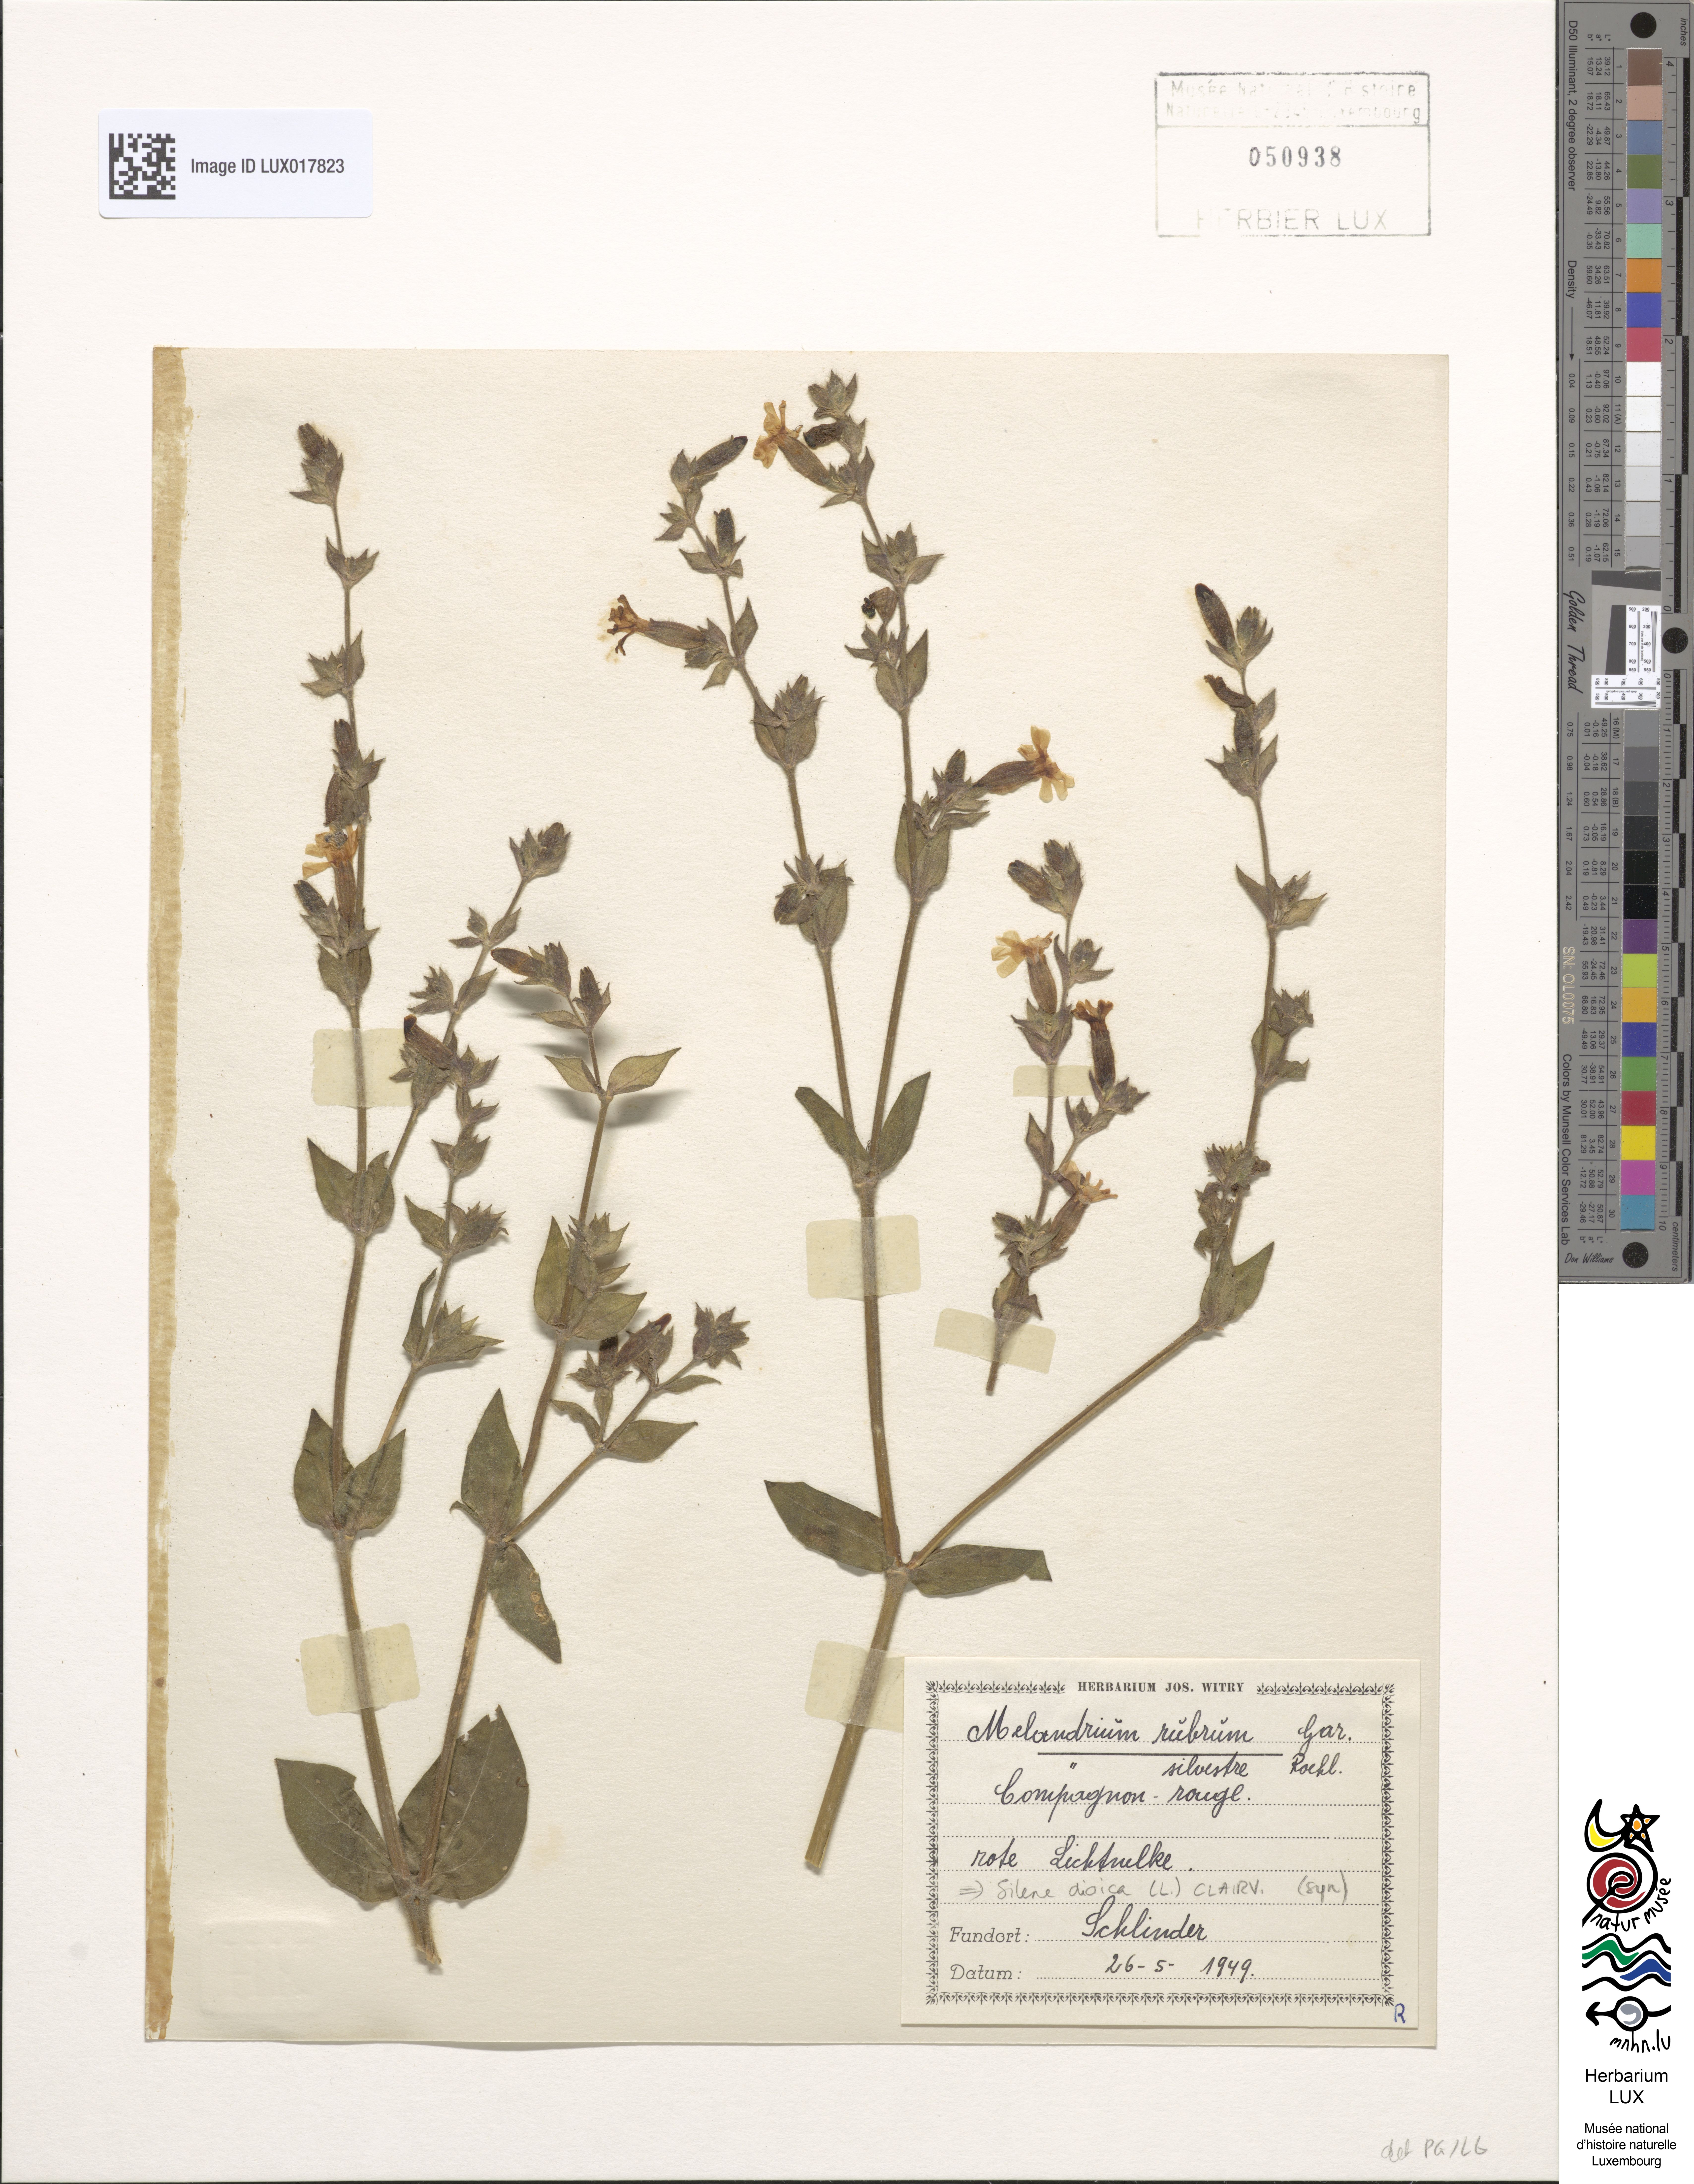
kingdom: Plantae
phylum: Tracheophyta
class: Magnoliopsida
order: Caryophyllales
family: Caryophyllaceae
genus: Silene
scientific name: Silene dioica
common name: Red campion
